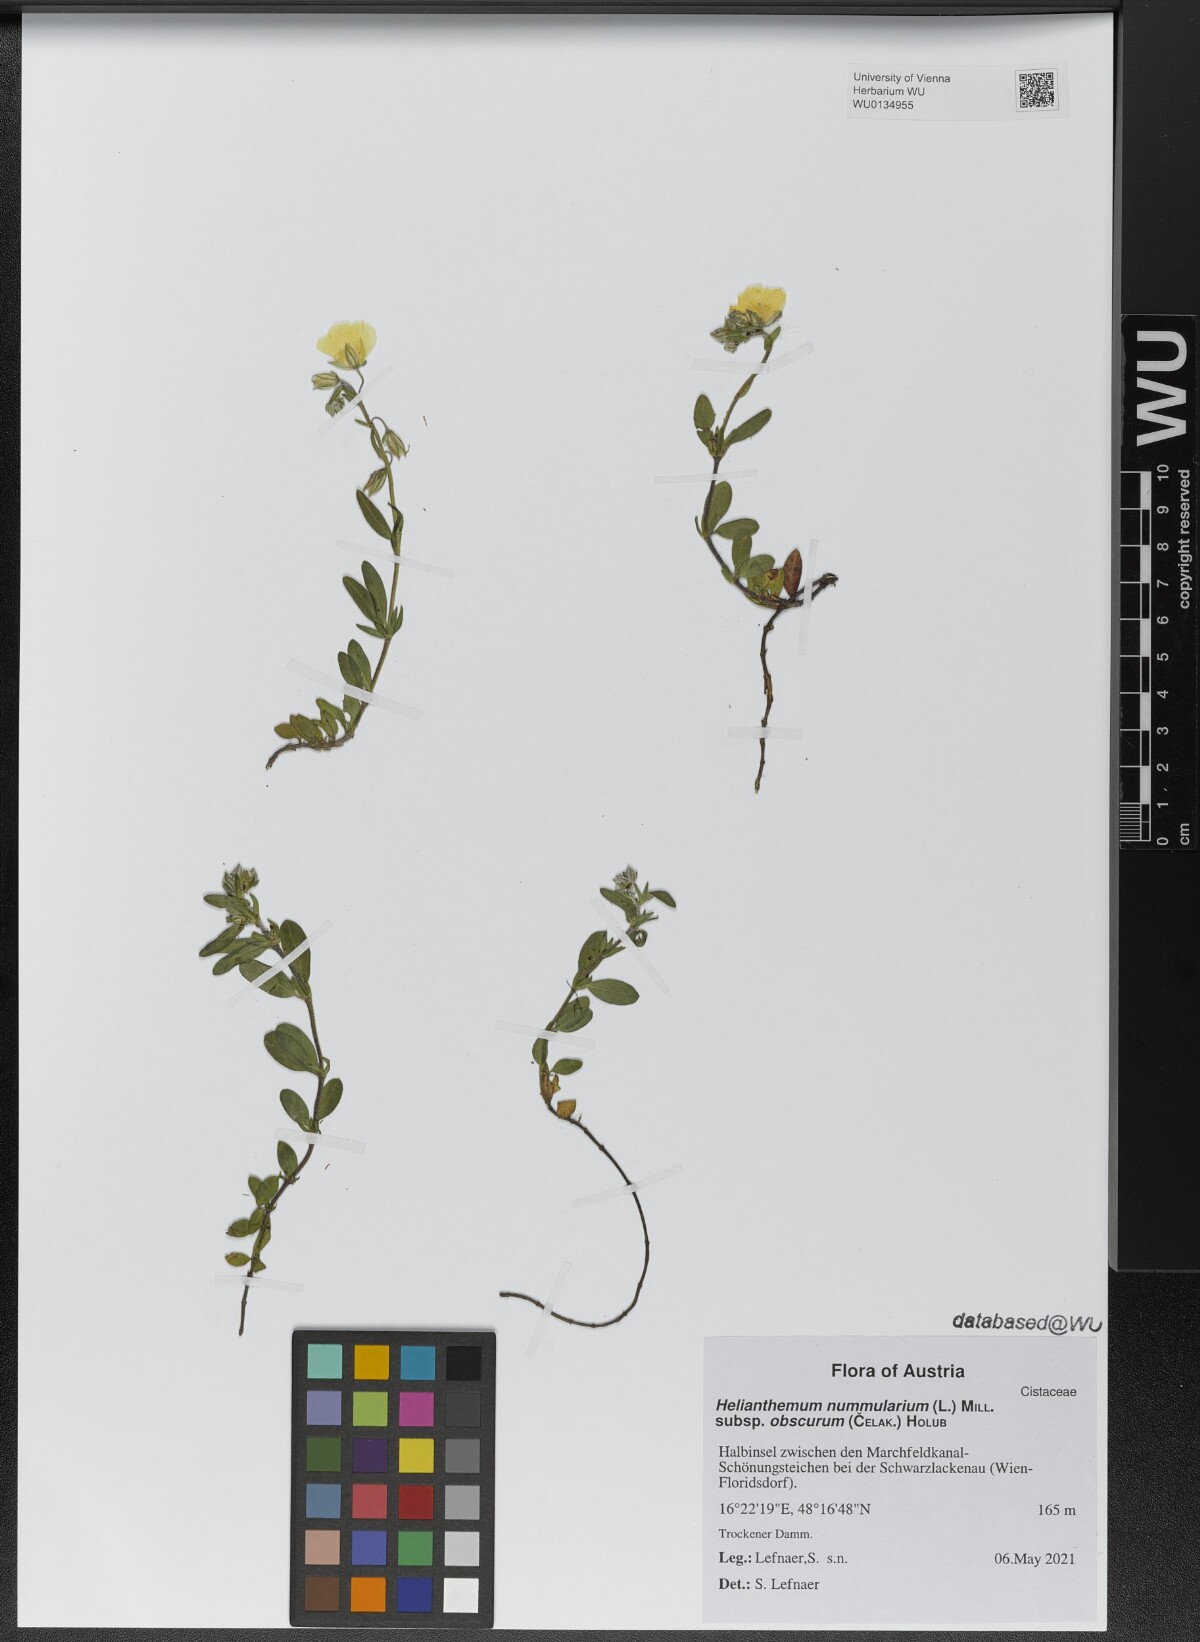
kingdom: Plantae
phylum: Tracheophyta
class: Magnoliopsida
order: Malvales
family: Cistaceae
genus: Helianthemum
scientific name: Helianthemum nummularium
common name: Common rock-rose
